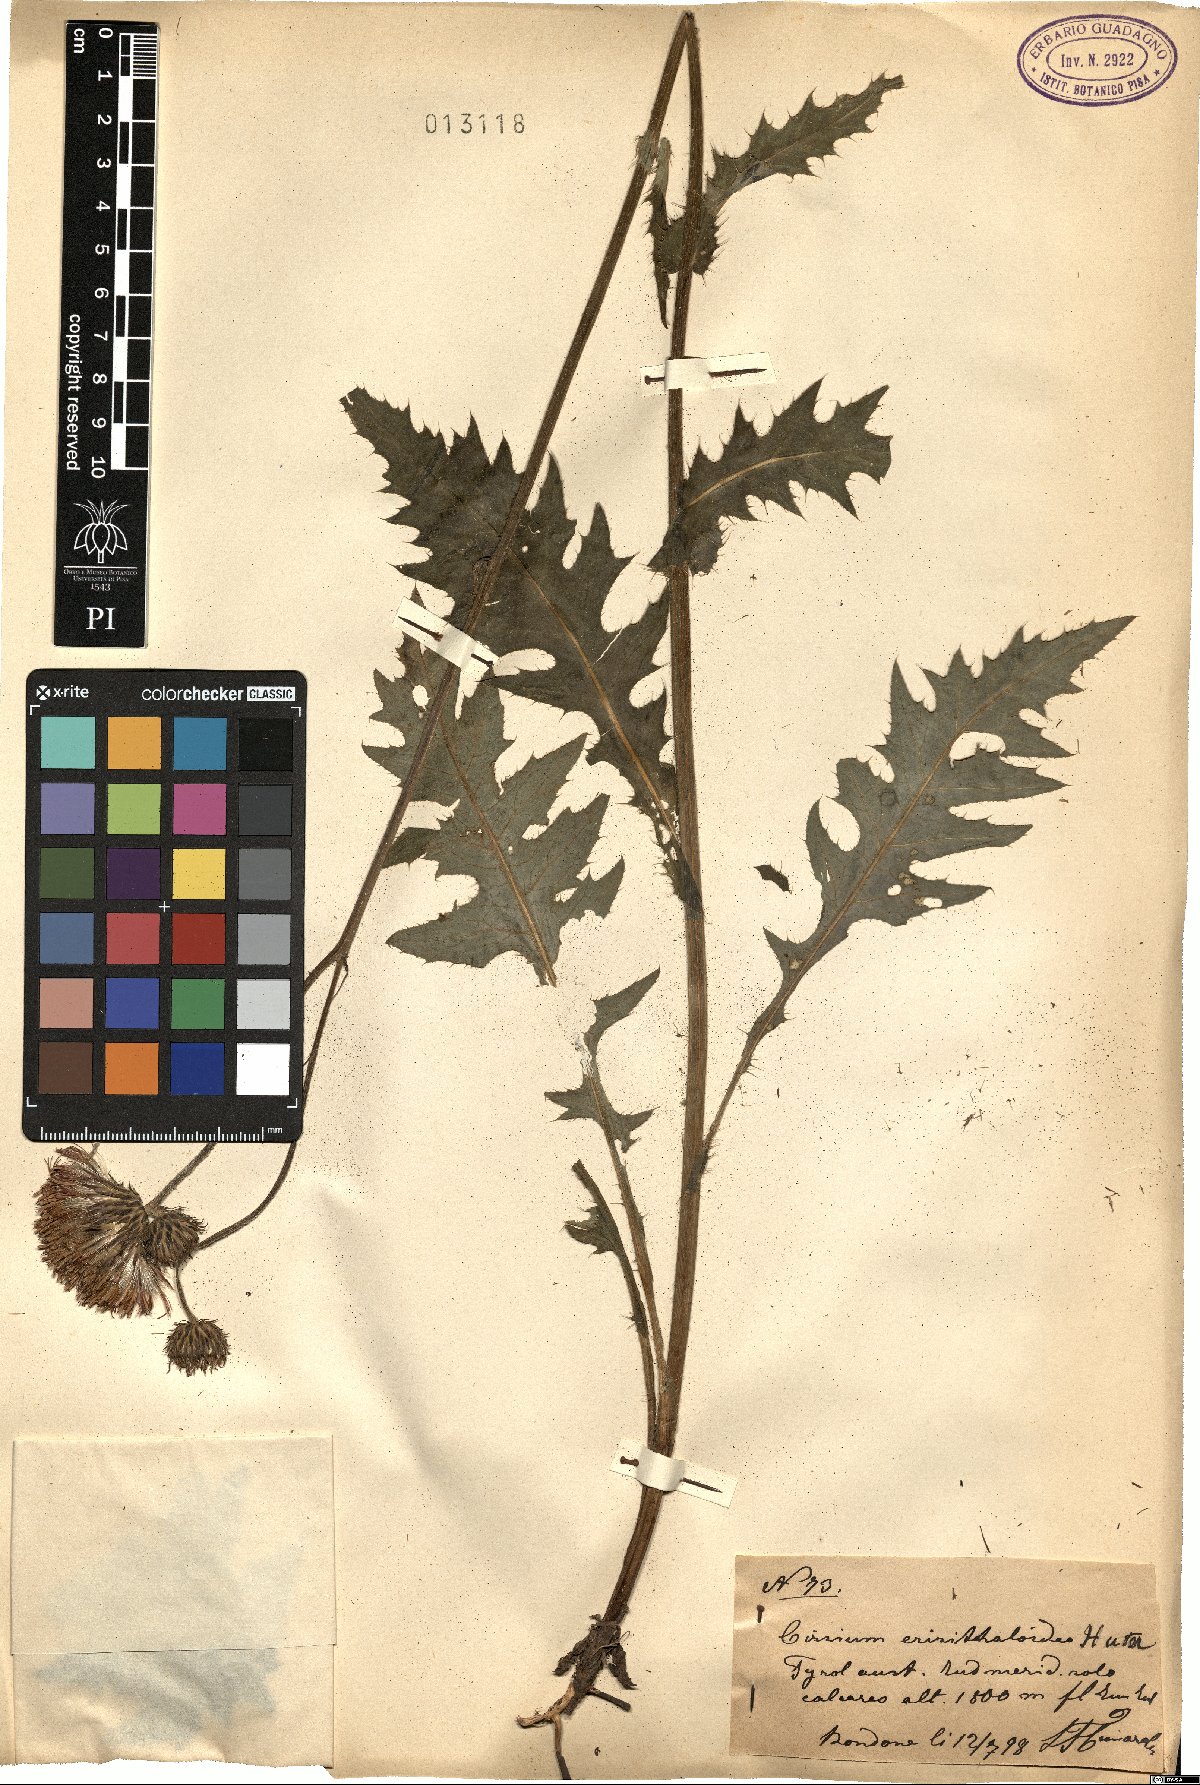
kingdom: Plantae
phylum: Tracheophyta
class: Magnoliopsida
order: Asterales
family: Asteraceae
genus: Cirsium
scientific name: Cirsium erisithaloides
